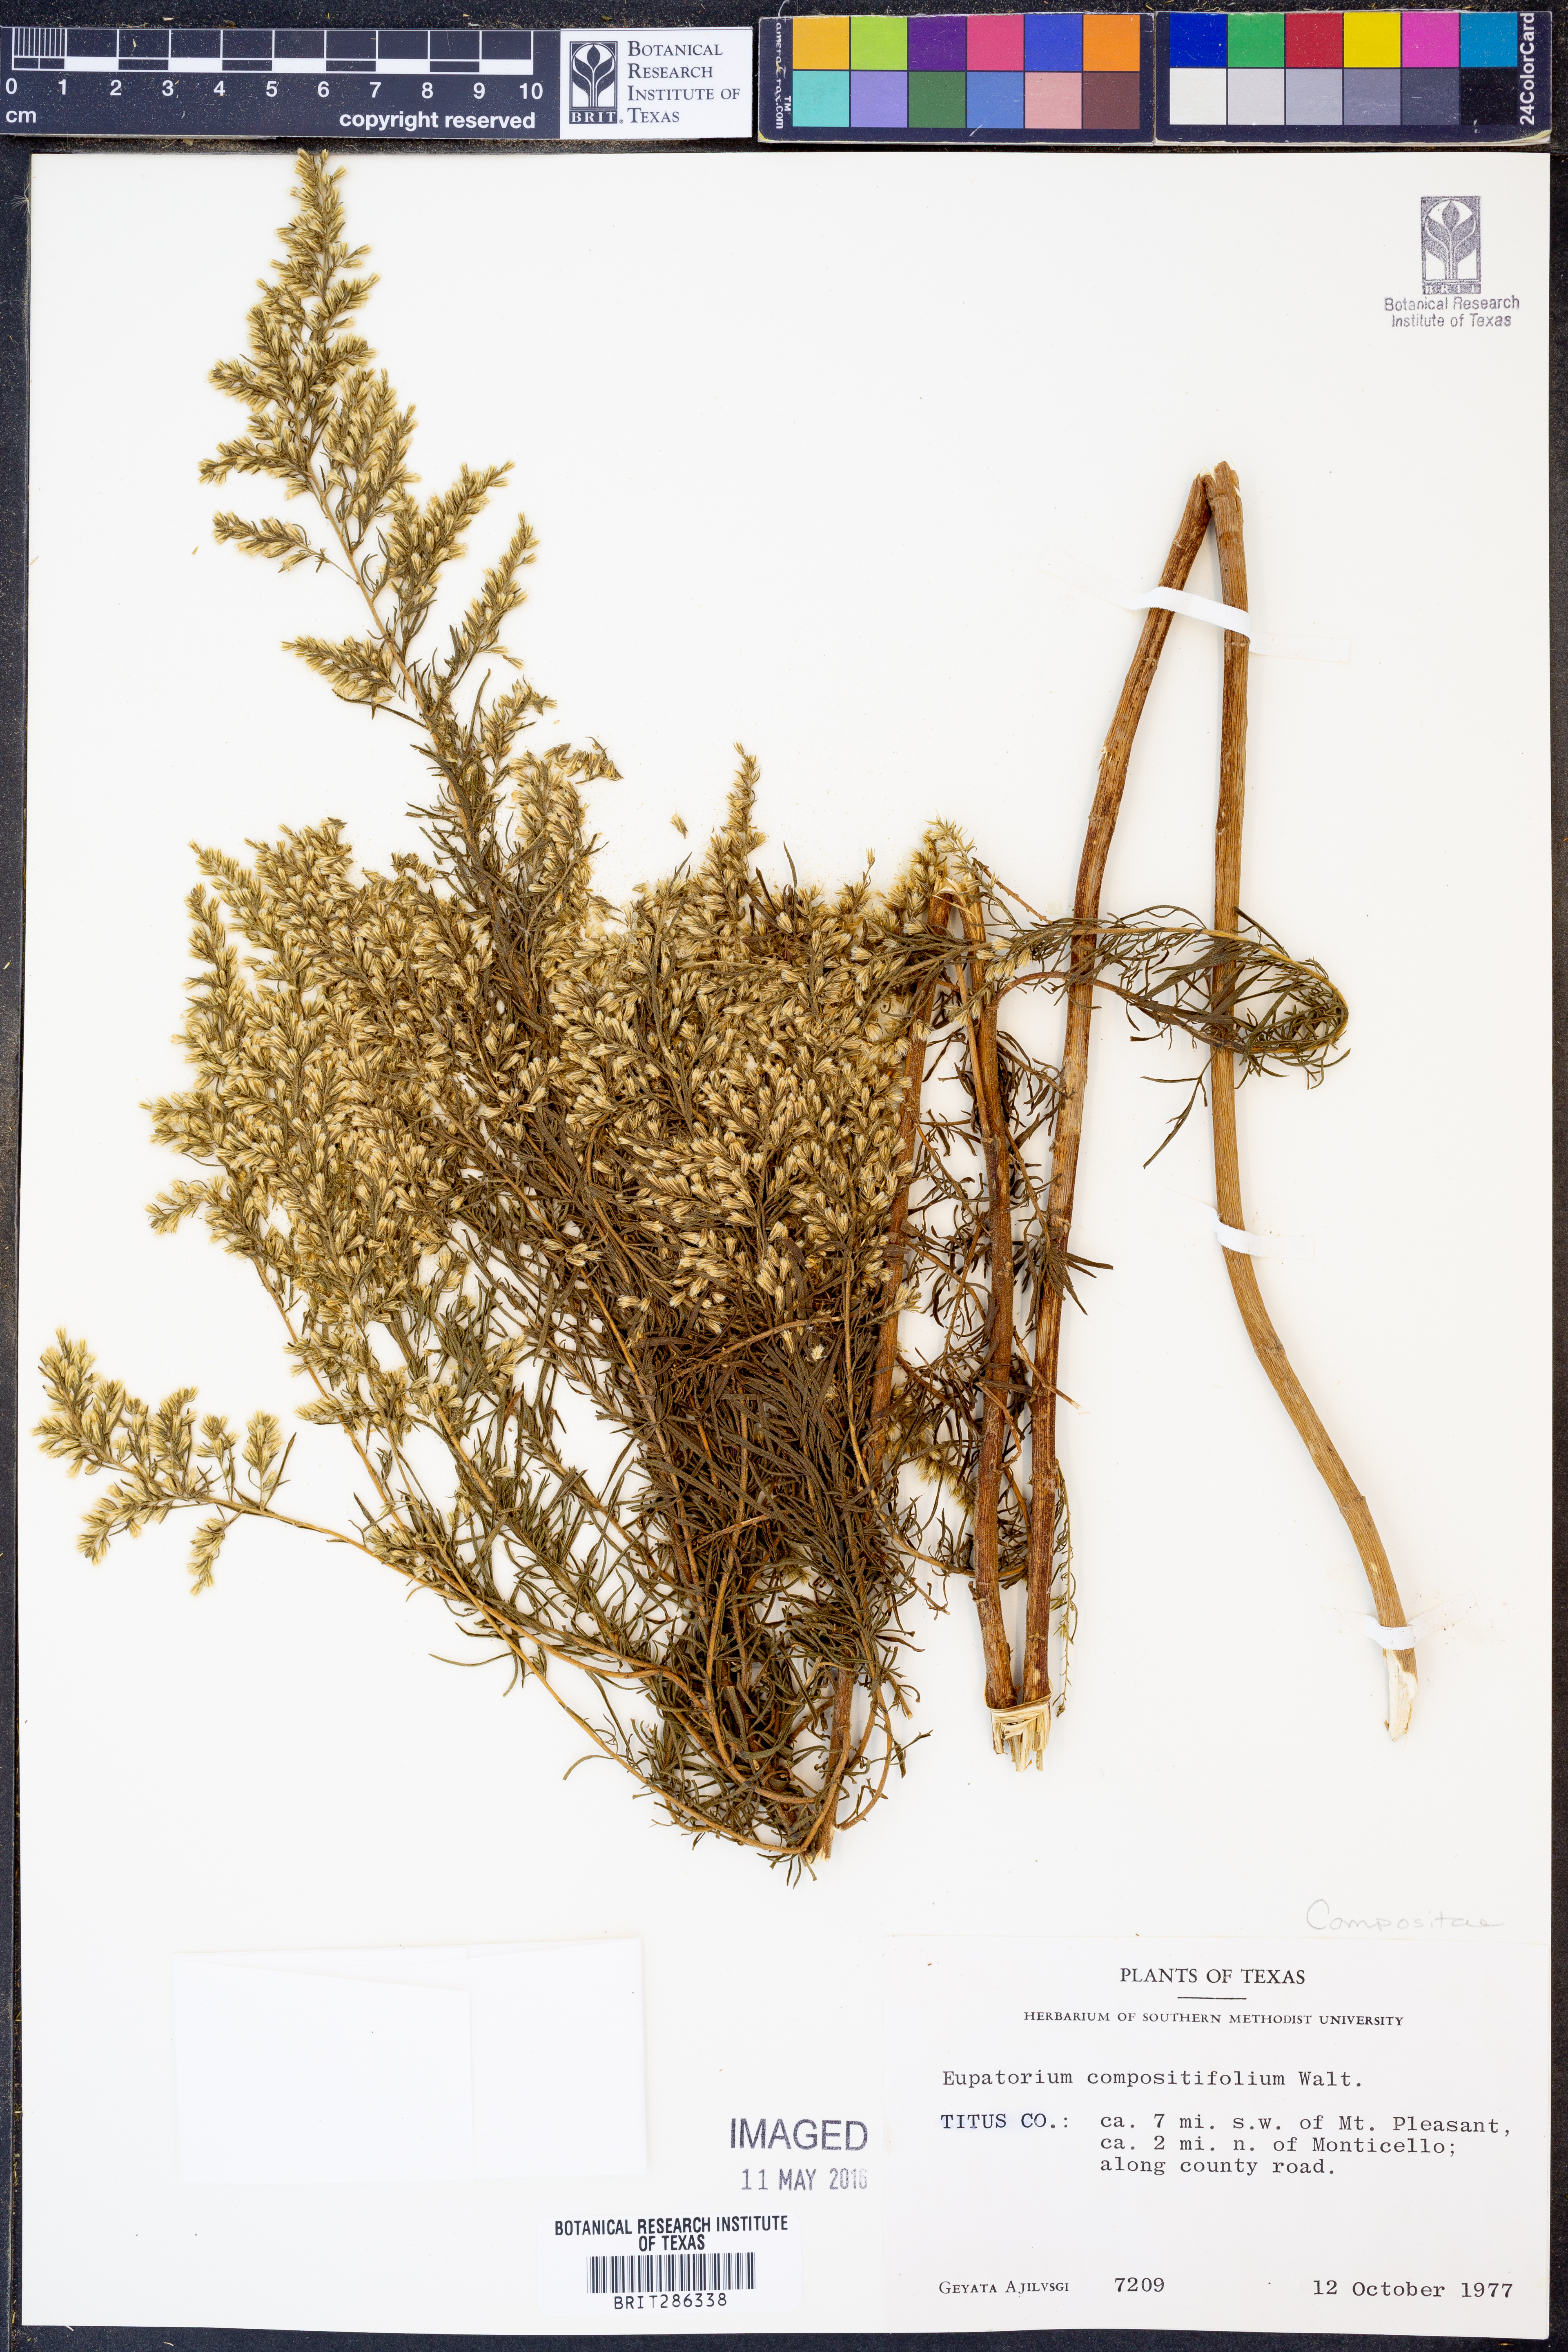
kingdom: Plantae
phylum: Tracheophyta
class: Magnoliopsida
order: Asterales
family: Asteraceae
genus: Eupatorium
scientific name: Eupatorium compositifolium
